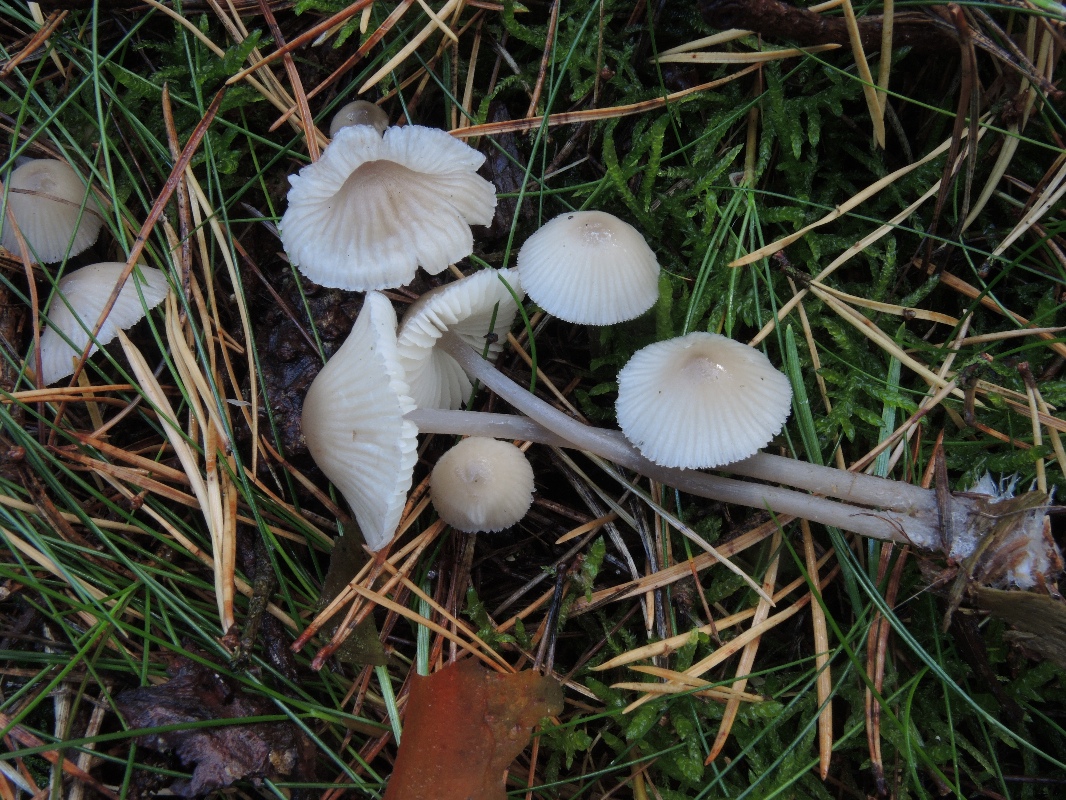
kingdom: Fungi
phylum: Basidiomycota
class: Agaricomycetes
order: Agaricales
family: Mycenaceae
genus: Mycena
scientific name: Mycena zephirus
